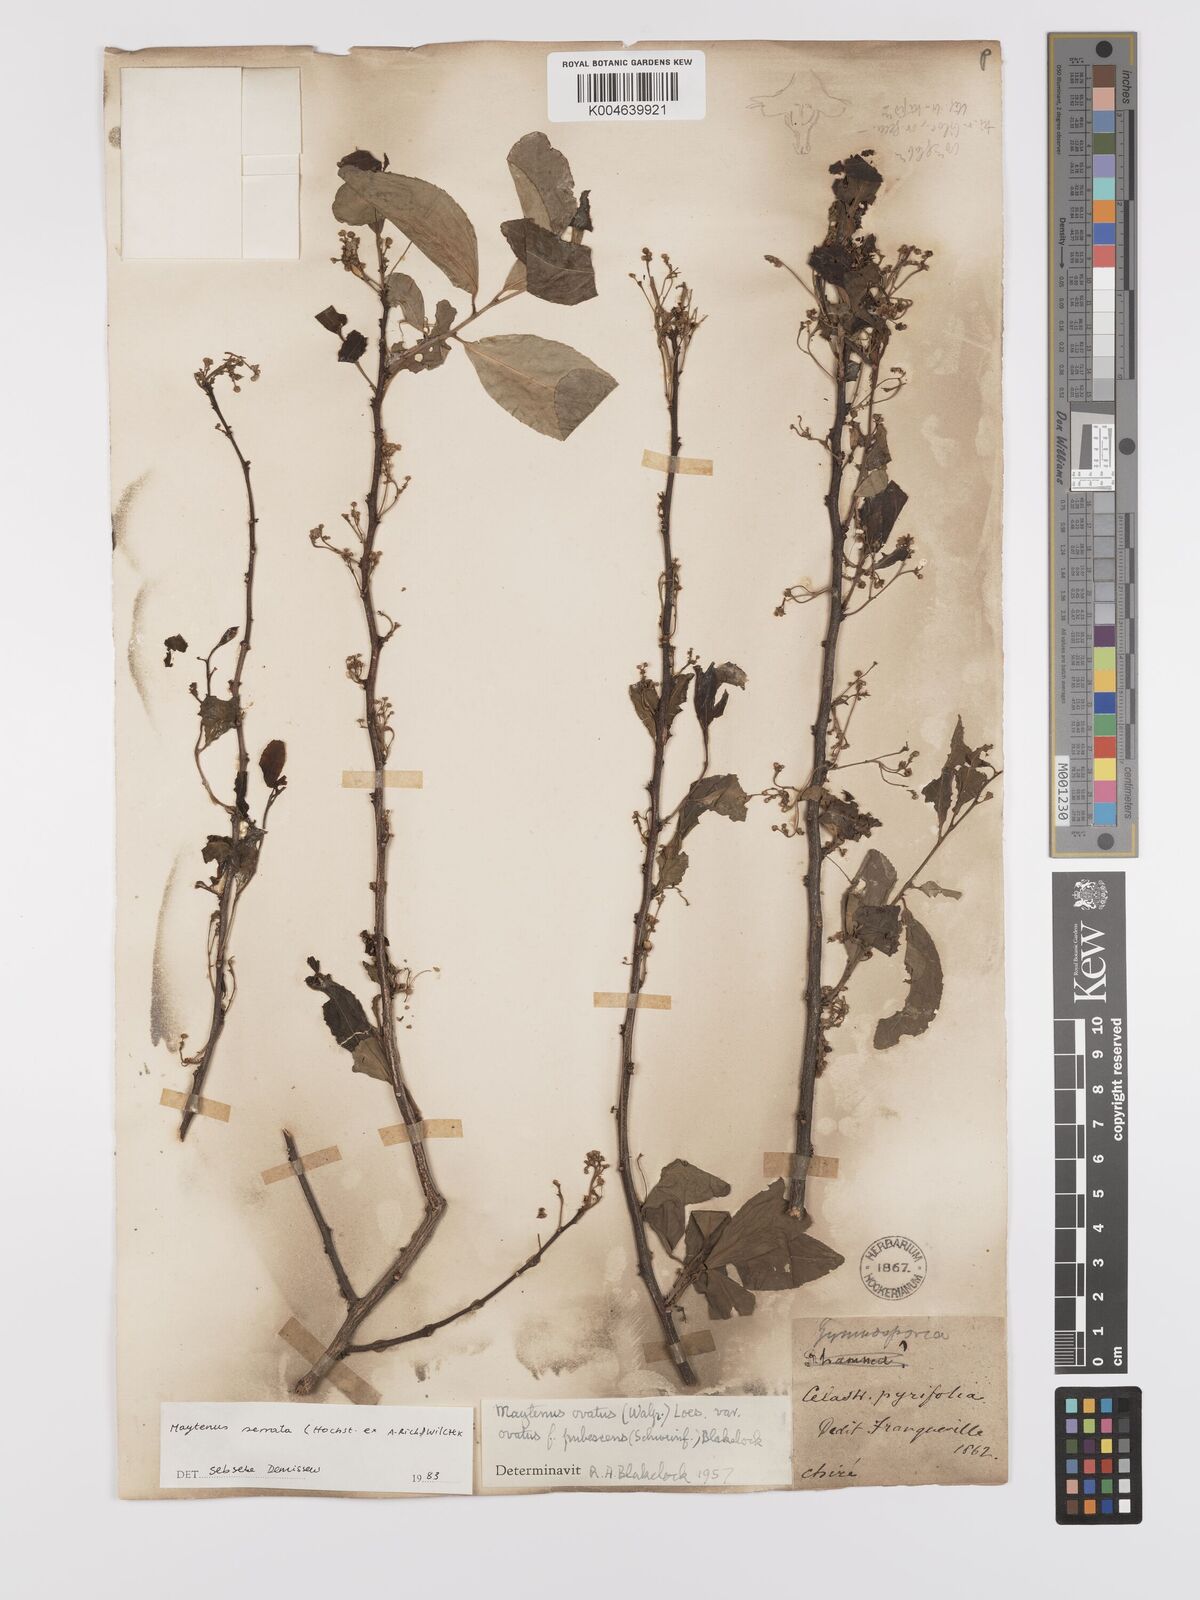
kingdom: Plantae
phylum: Tracheophyta
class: Magnoliopsida
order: Celastrales
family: Celastraceae
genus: Gymnosporia
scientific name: Gymnosporia serrata
